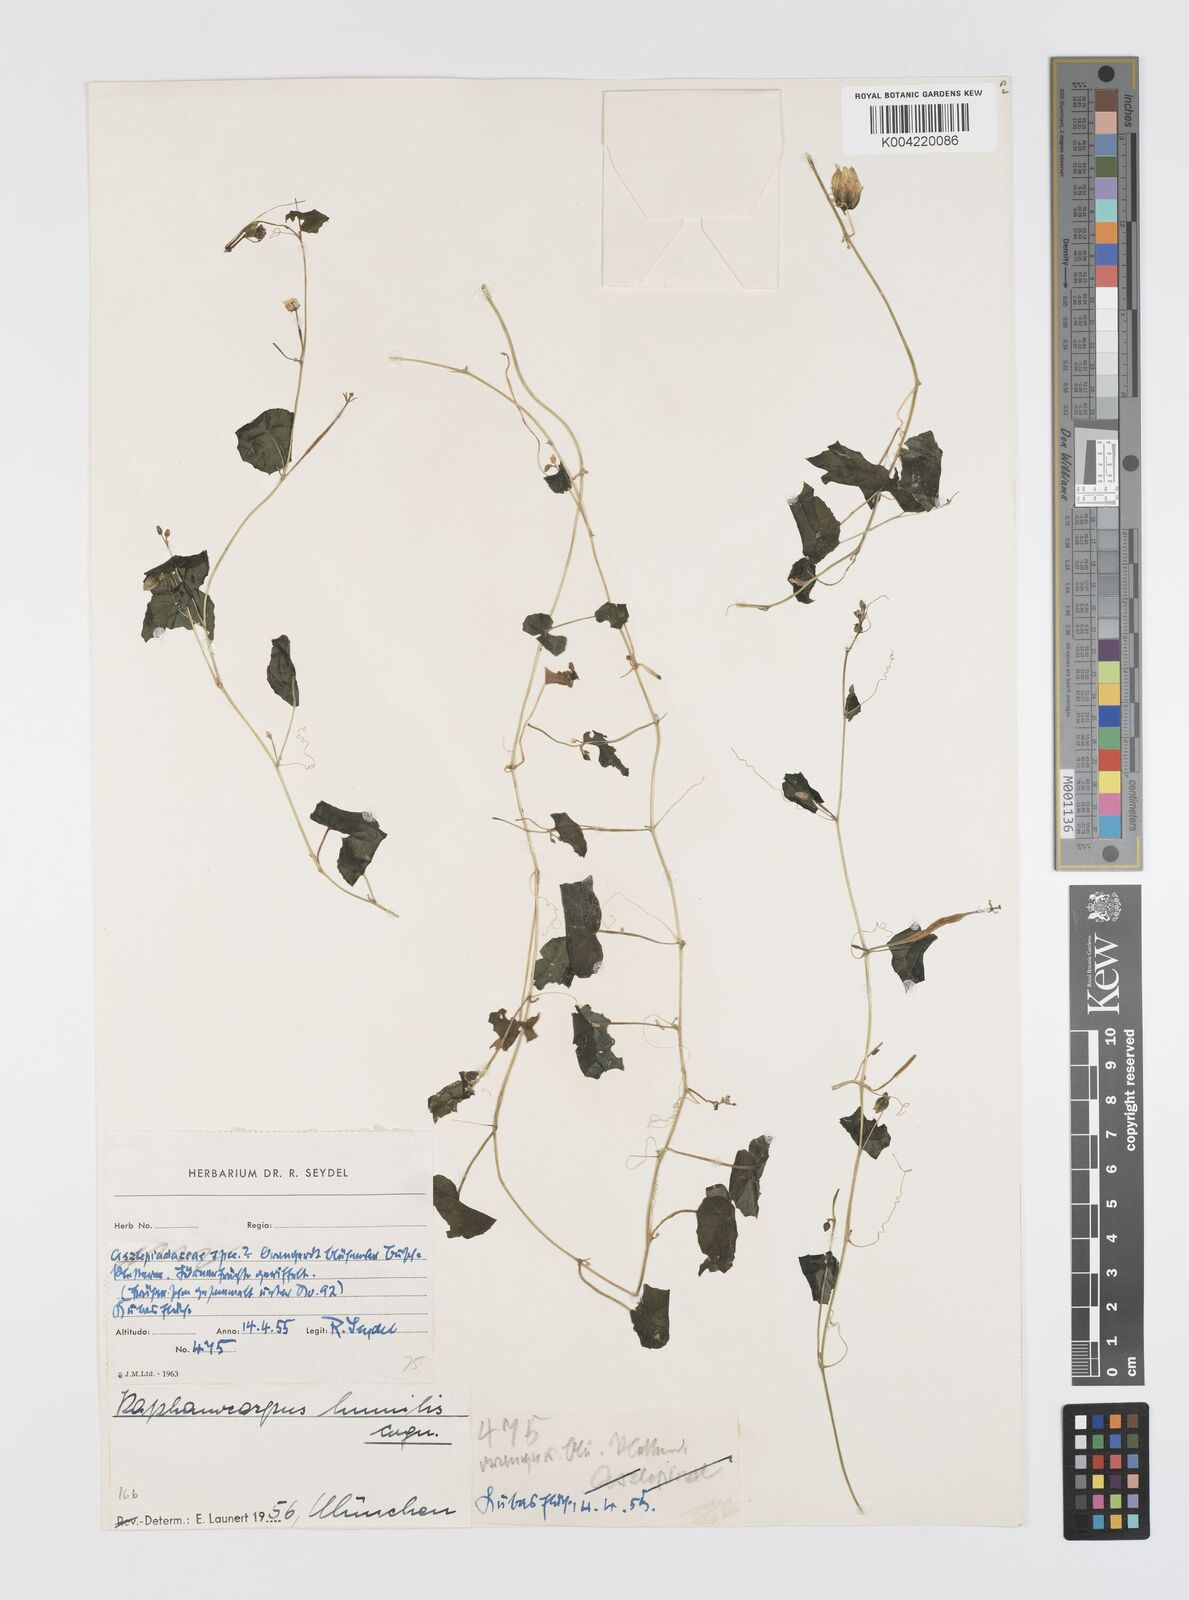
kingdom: Plantae
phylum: Tracheophyta
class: Magnoliopsida
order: Cucurbitales
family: Cucurbitaceae
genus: Momordica
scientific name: Momordica
